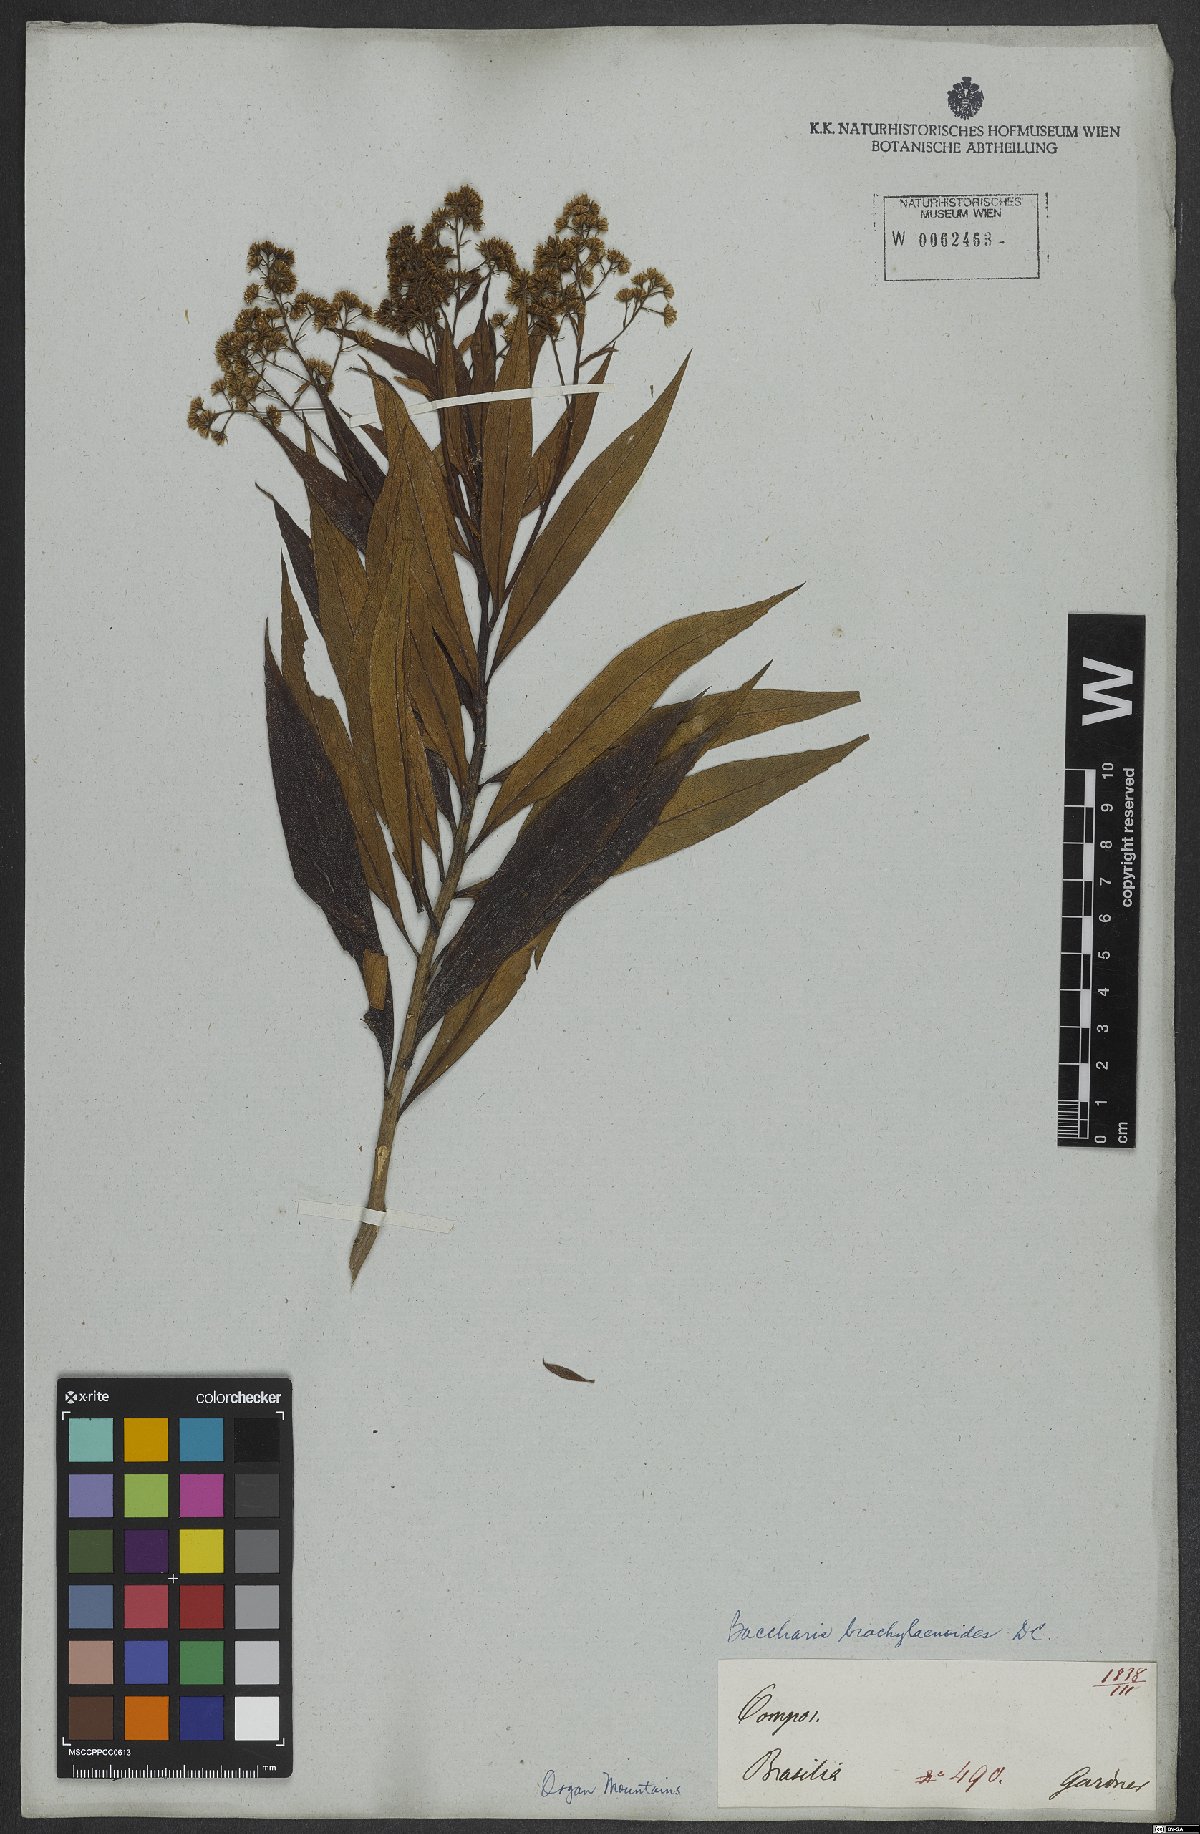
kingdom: Plantae
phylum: Tracheophyta
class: Magnoliopsida
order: Asterales
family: Asteraceae
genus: Baccharis
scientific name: Baccharis oblongifolia
